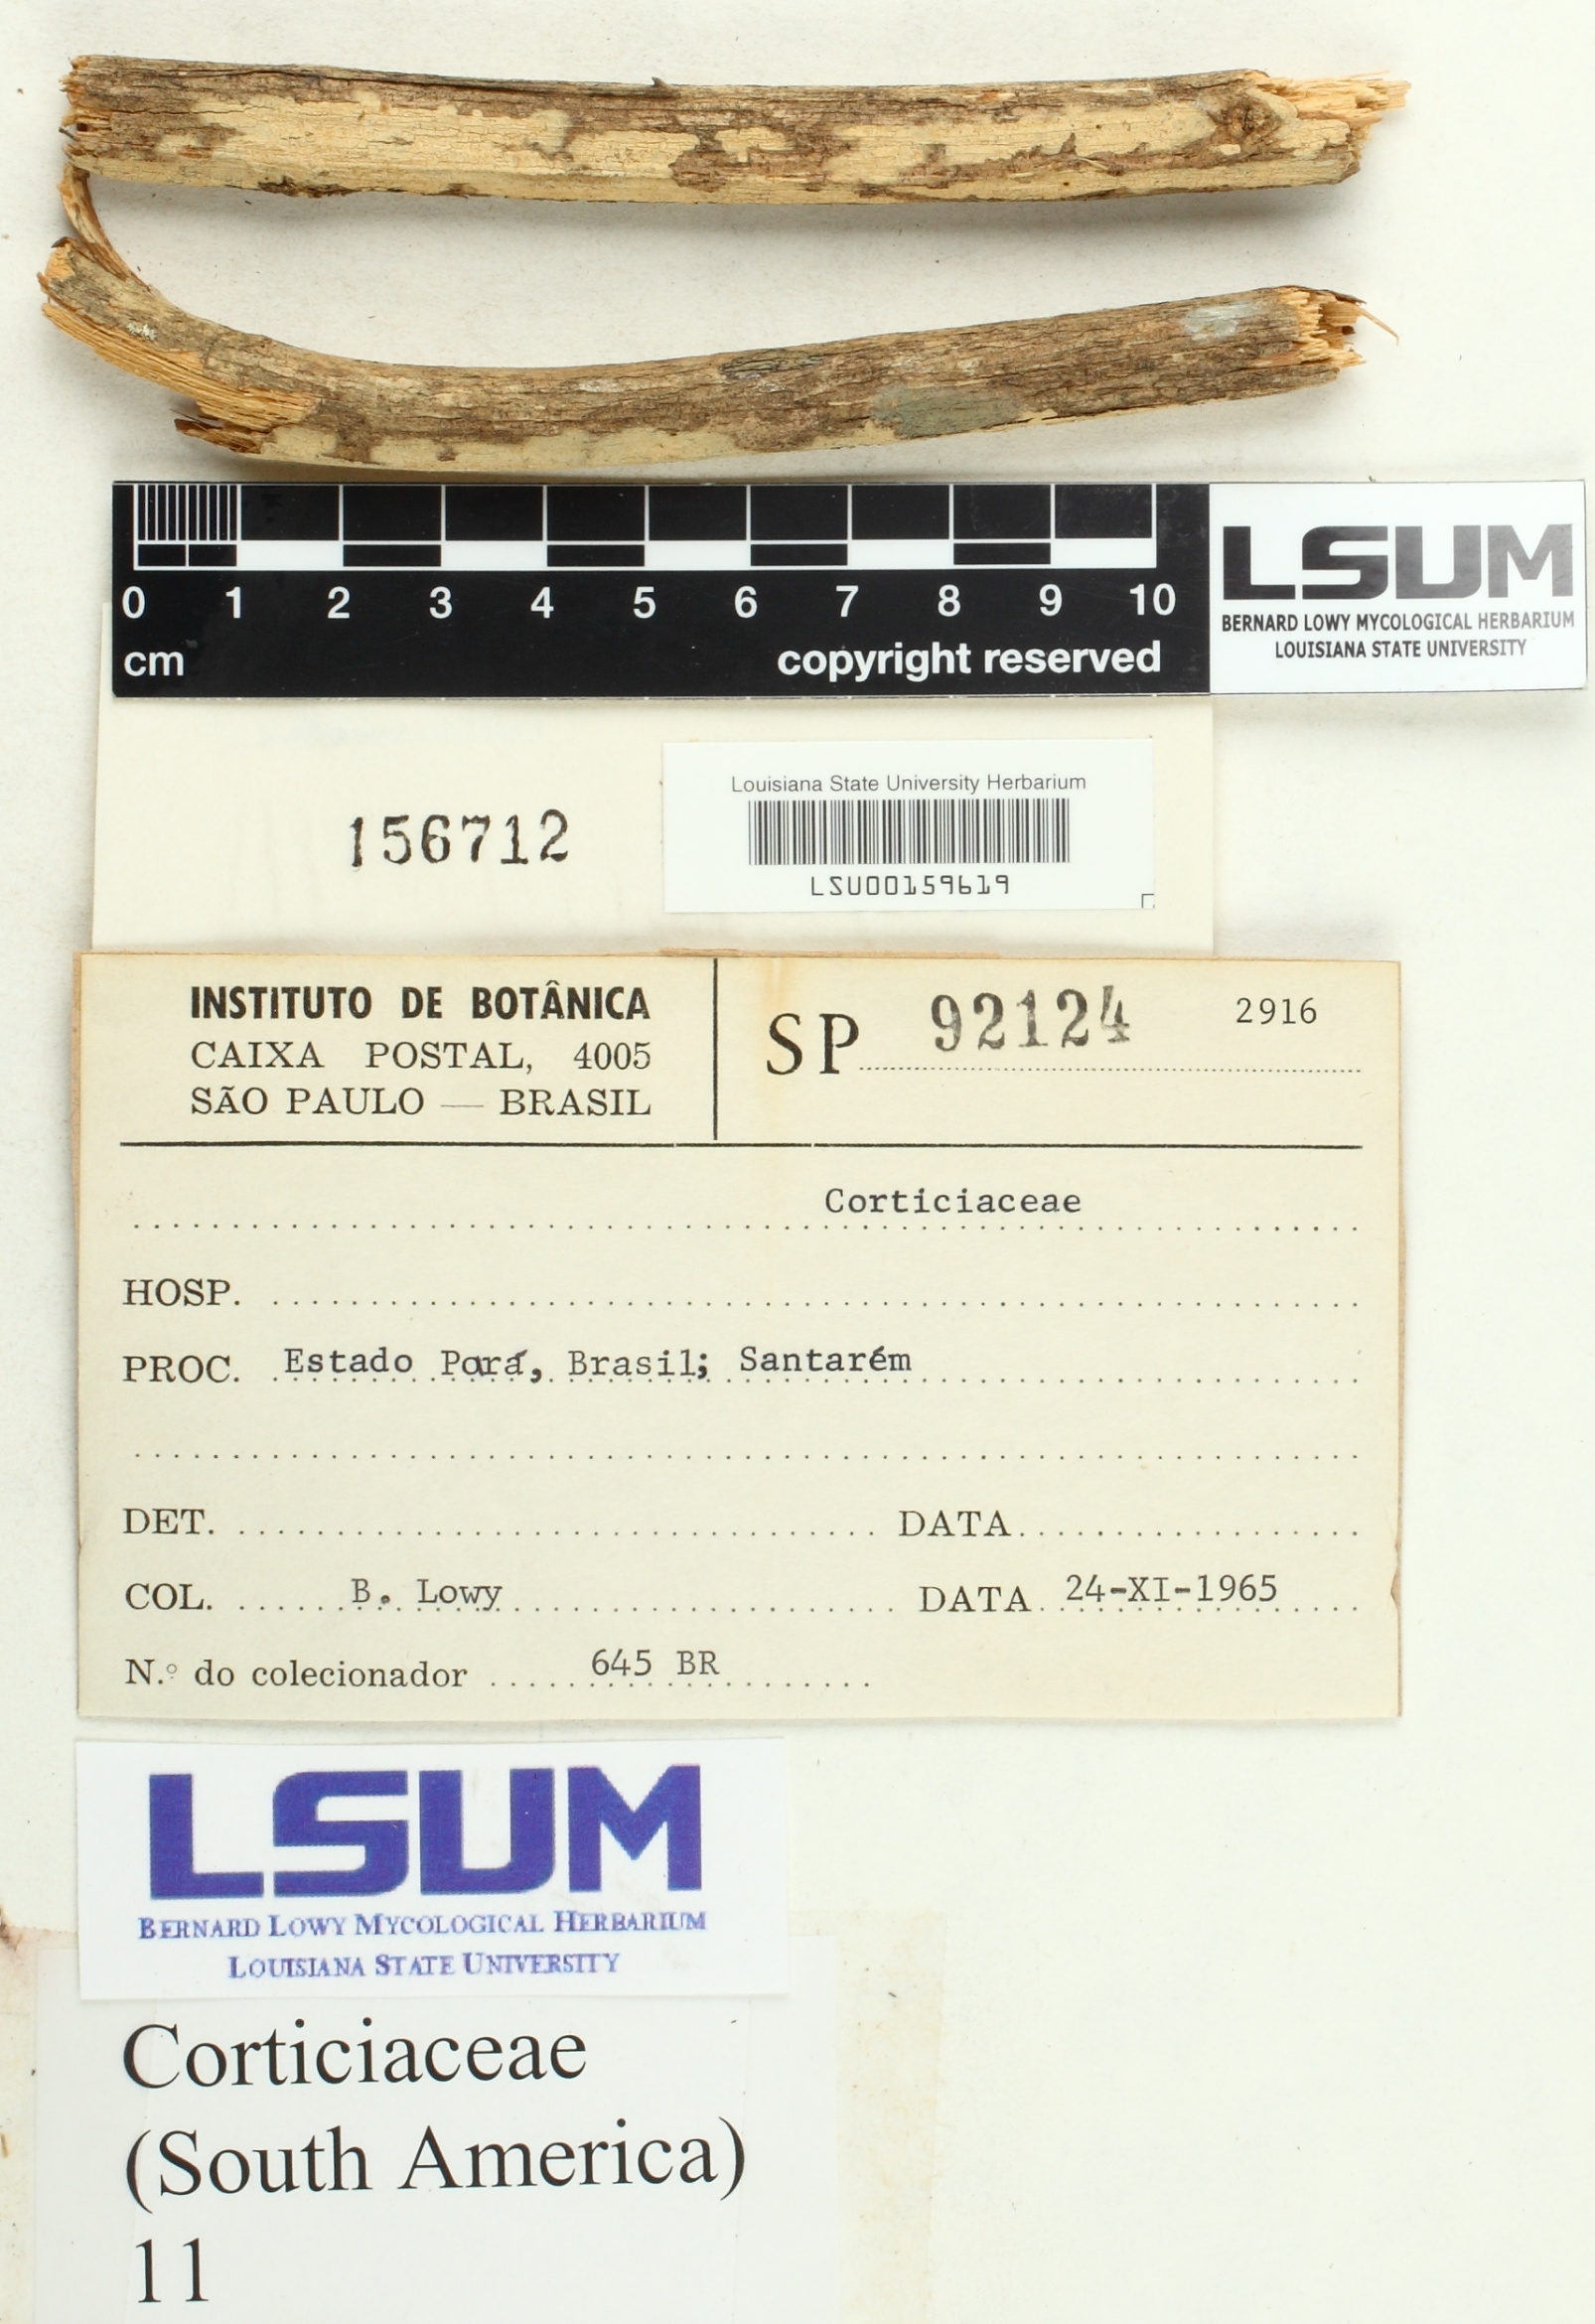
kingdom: Fungi
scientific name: Fungi
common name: Fungi
